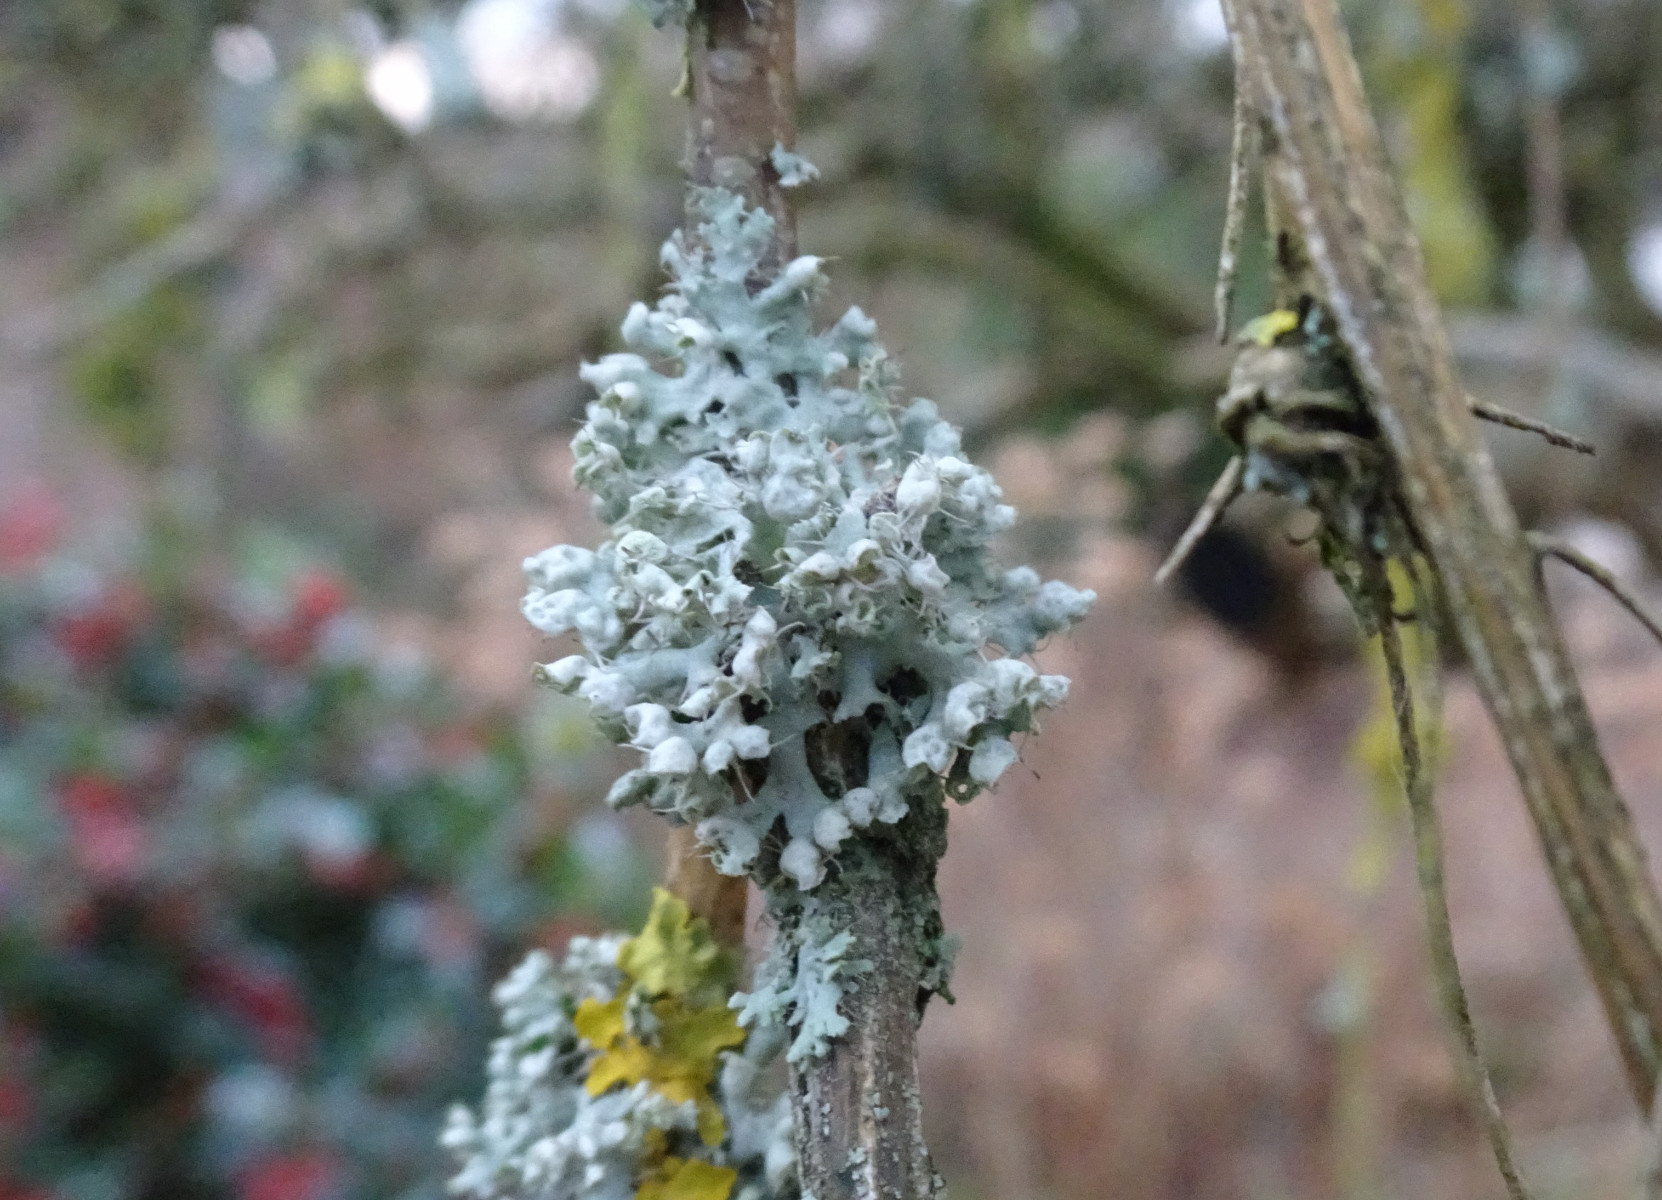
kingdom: Fungi
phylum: Ascomycota
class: Lecanoromycetes
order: Caliciales
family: Physciaceae
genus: Physcia
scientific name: Physcia adscendens
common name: hætte-rosetlav
